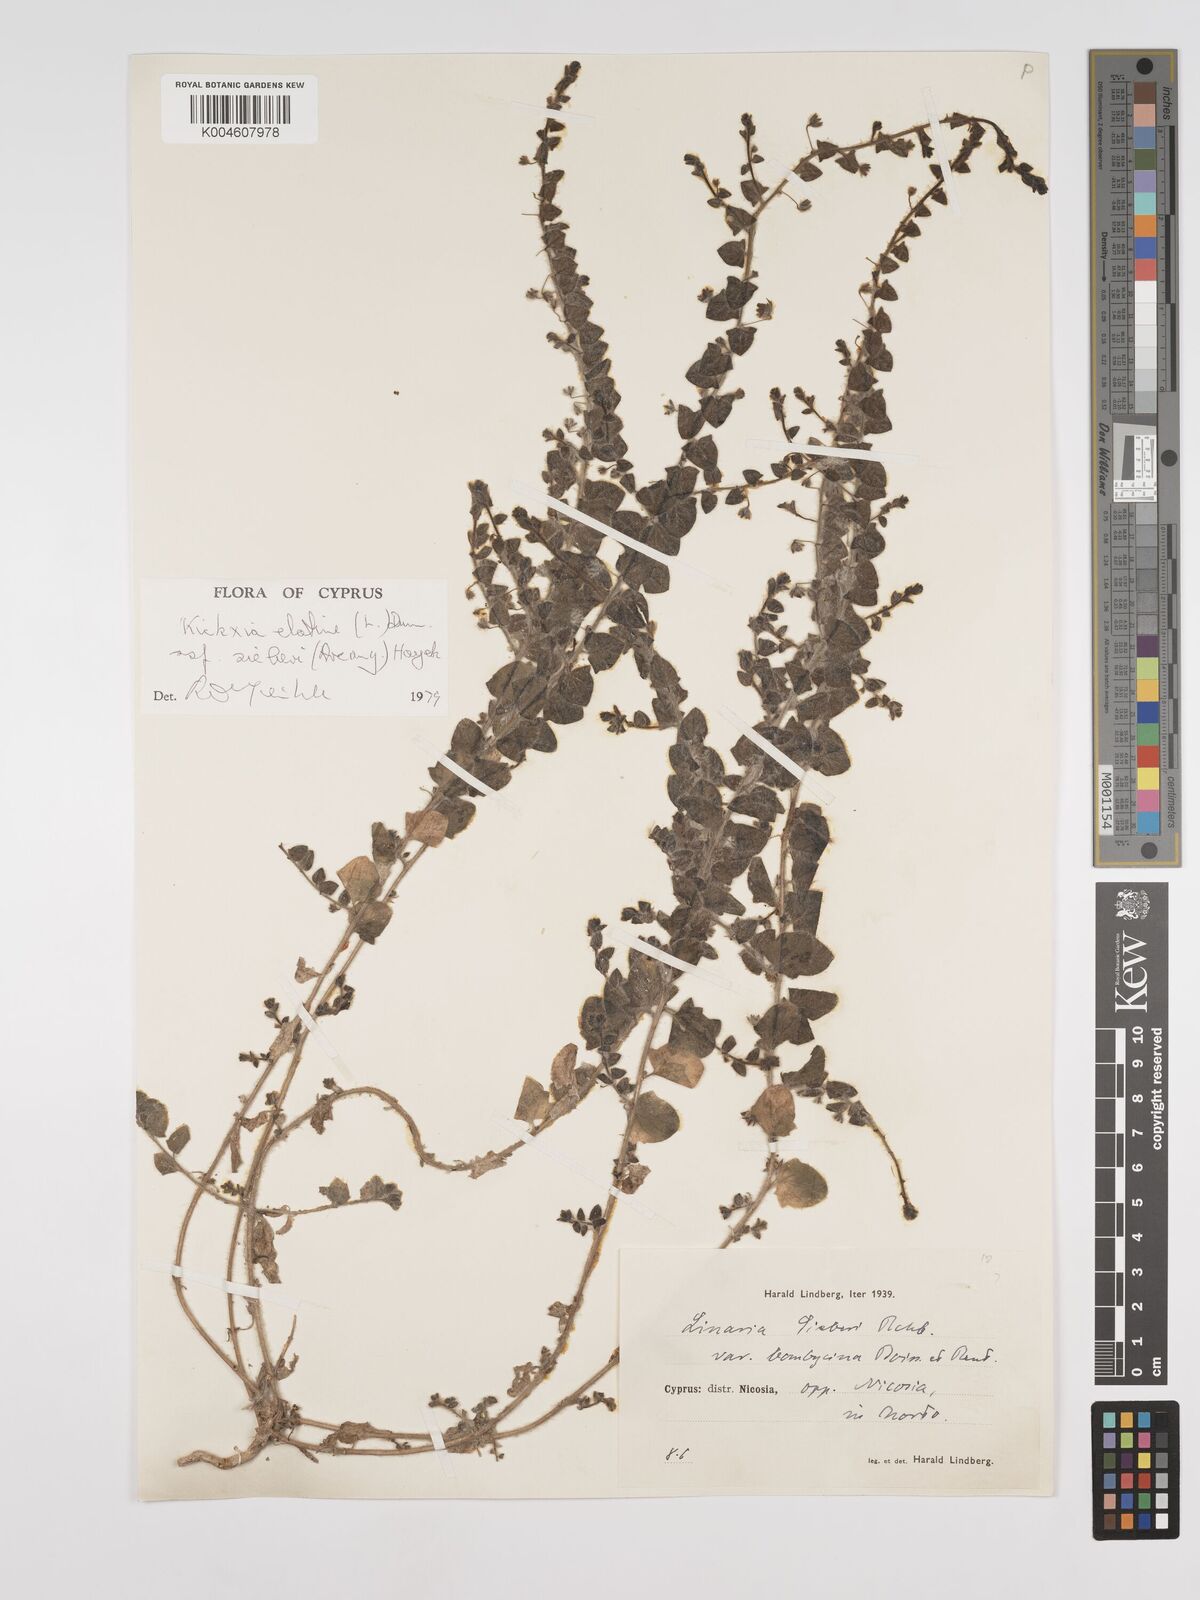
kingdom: Plantae
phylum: Tracheophyta
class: Magnoliopsida
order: Lamiales
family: Plantaginaceae
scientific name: Plantaginaceae
